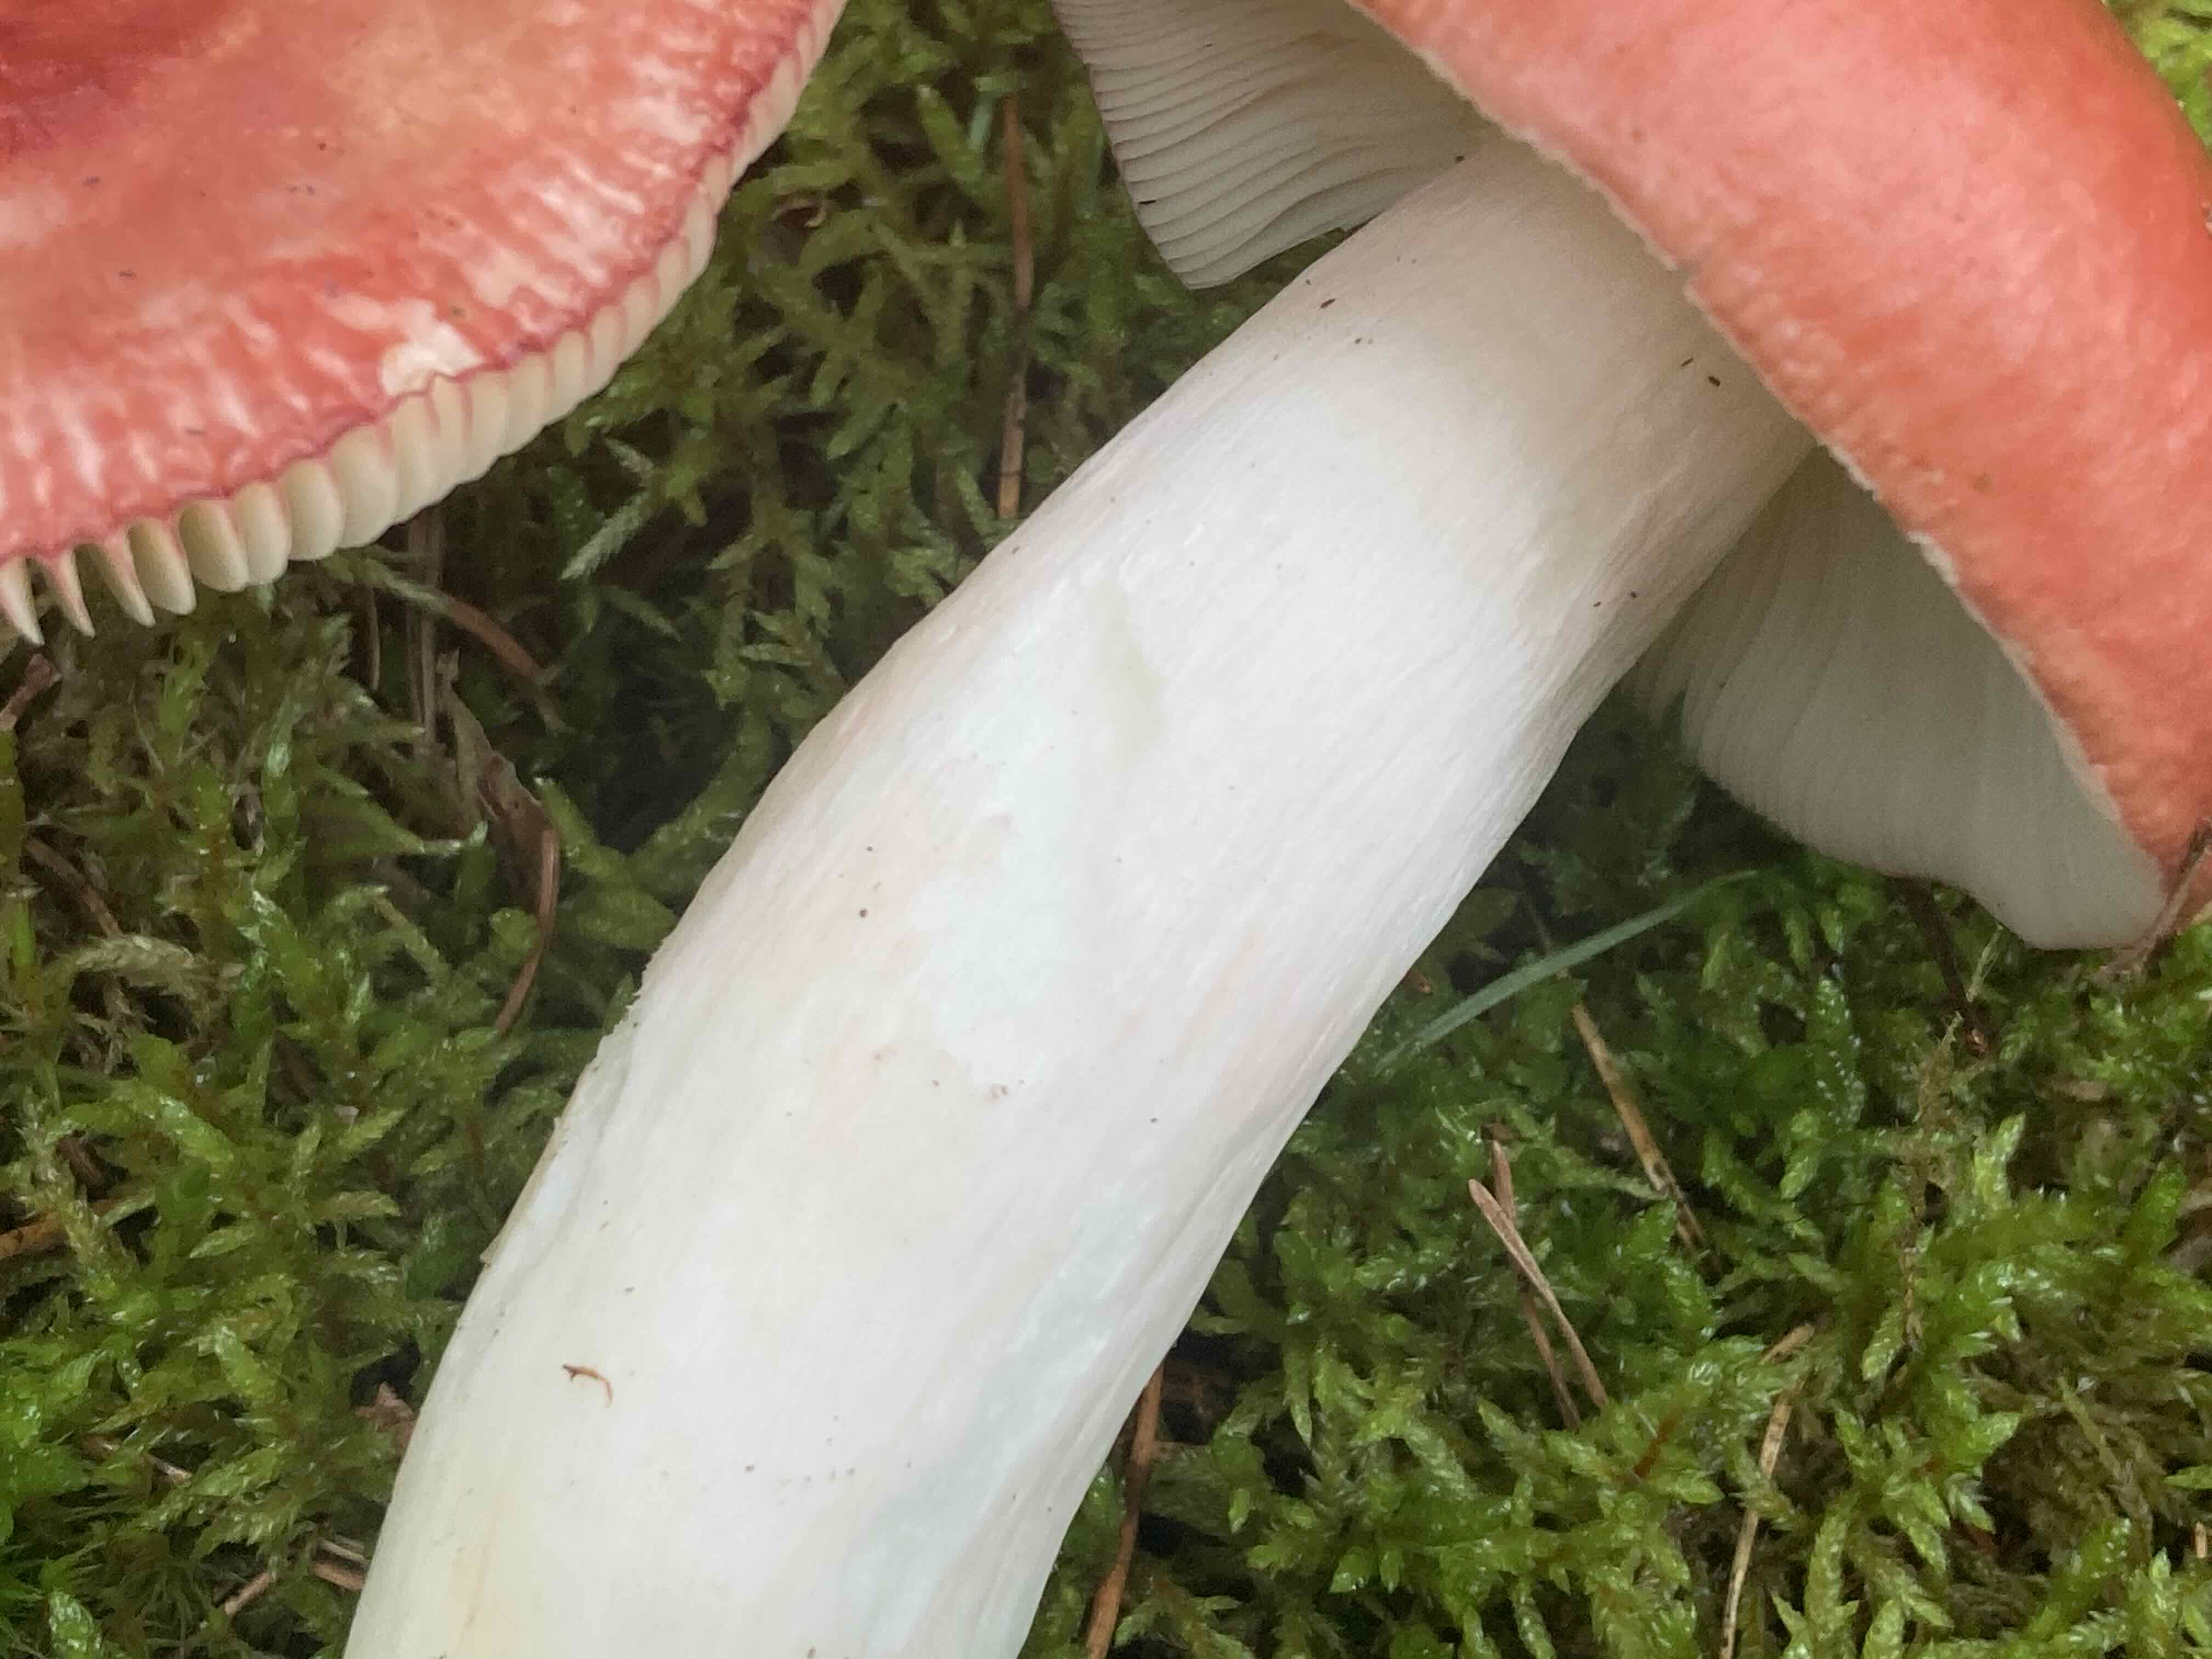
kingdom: Fungi
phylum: Basidiomycota
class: Agaricomycetes
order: Russulales
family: Russulaceae
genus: Russula
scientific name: Russula paludosa
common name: prægtig skørhat
